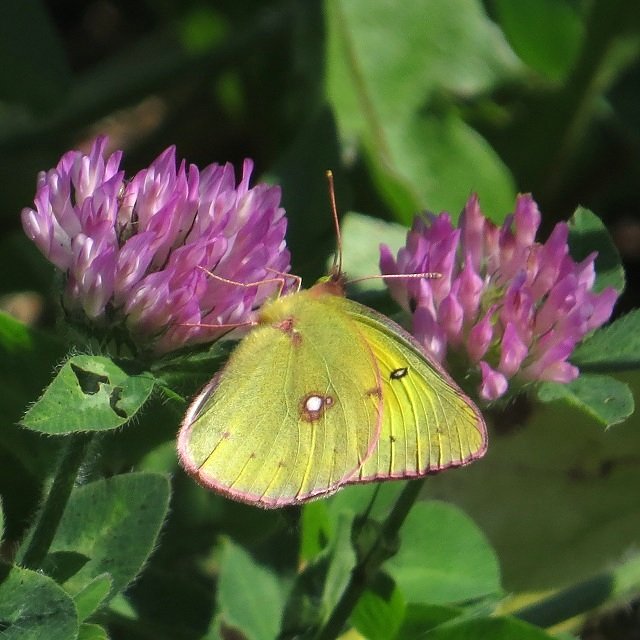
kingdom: Animalia
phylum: Arthropoda
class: Insecta
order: Lepidoptera
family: Pieridae
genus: Colias
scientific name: Colias eurytheme
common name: Orange Sulphur
